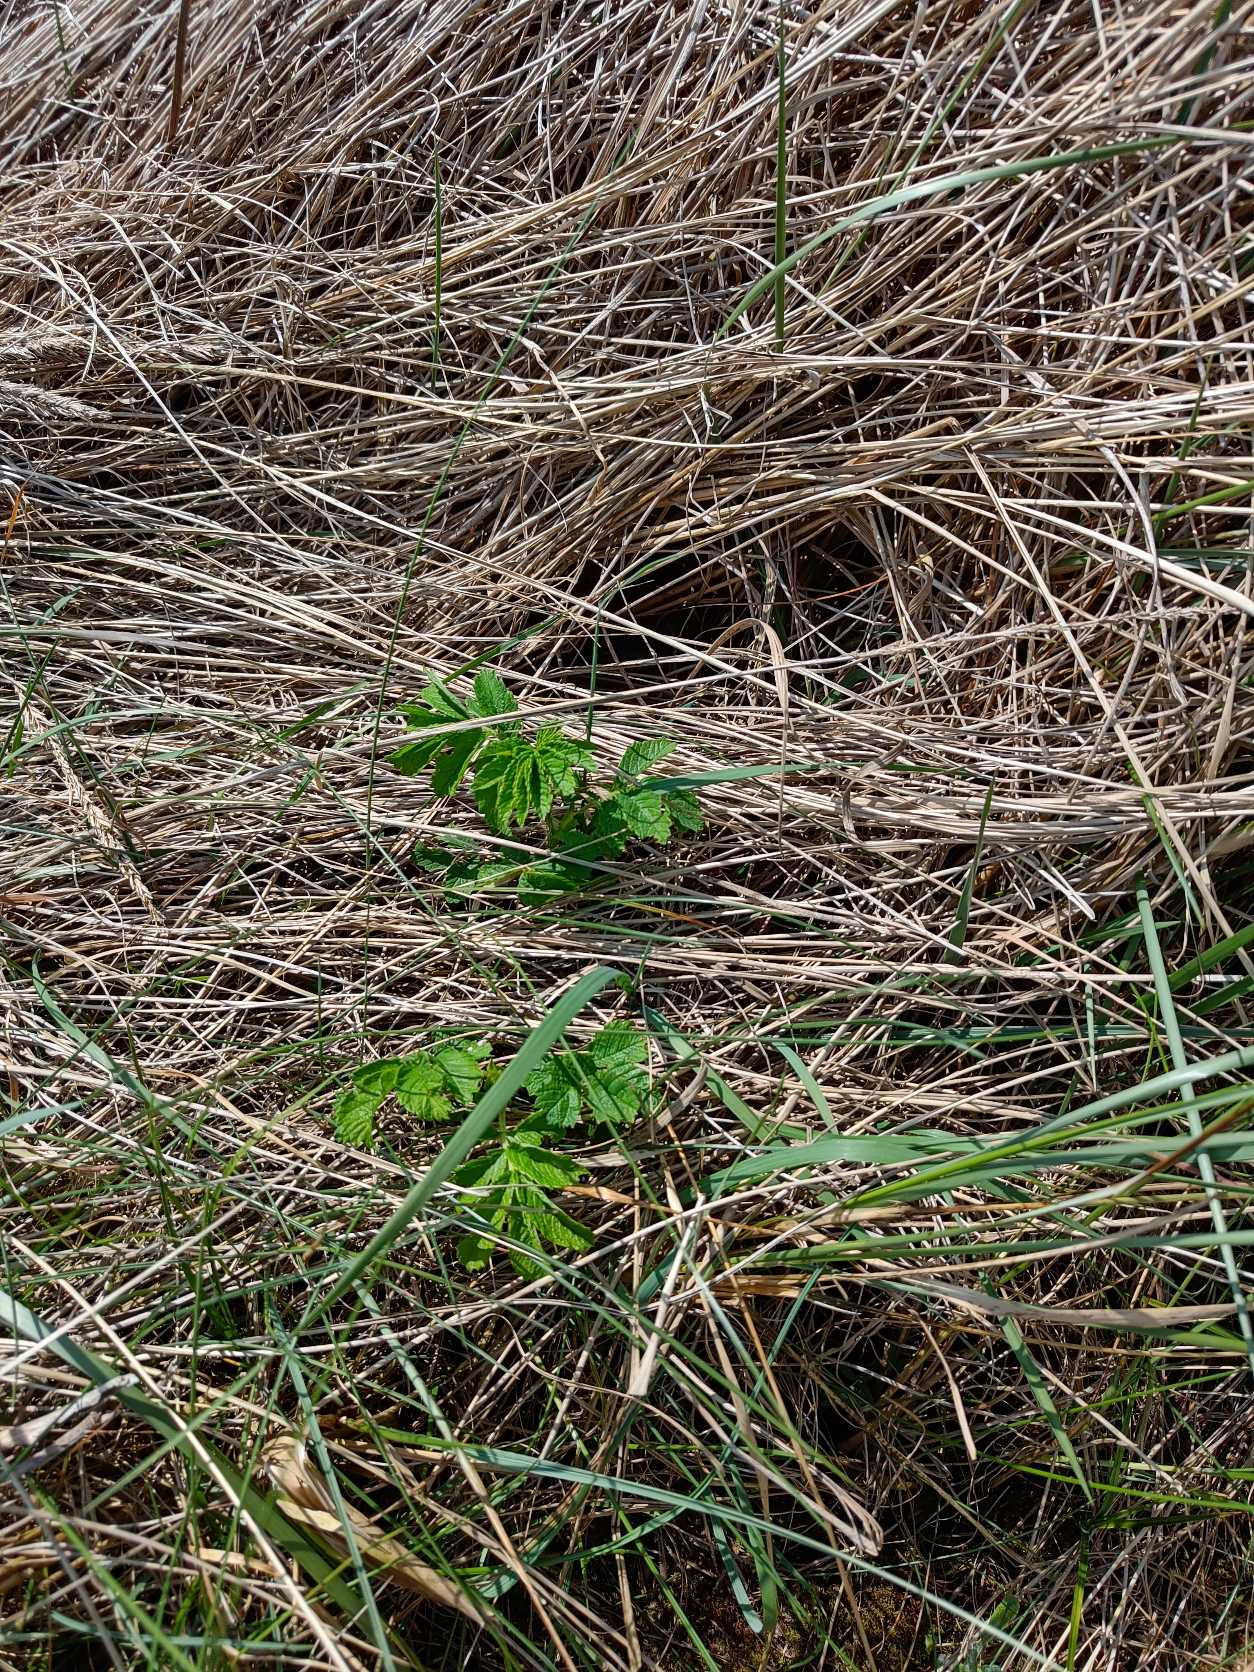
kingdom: Plantae
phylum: Tracheophyta
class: Magnoliopsida
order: Rosales
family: Rosaceae
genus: Rosa
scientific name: Rosa rugosa
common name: Rynket rose
